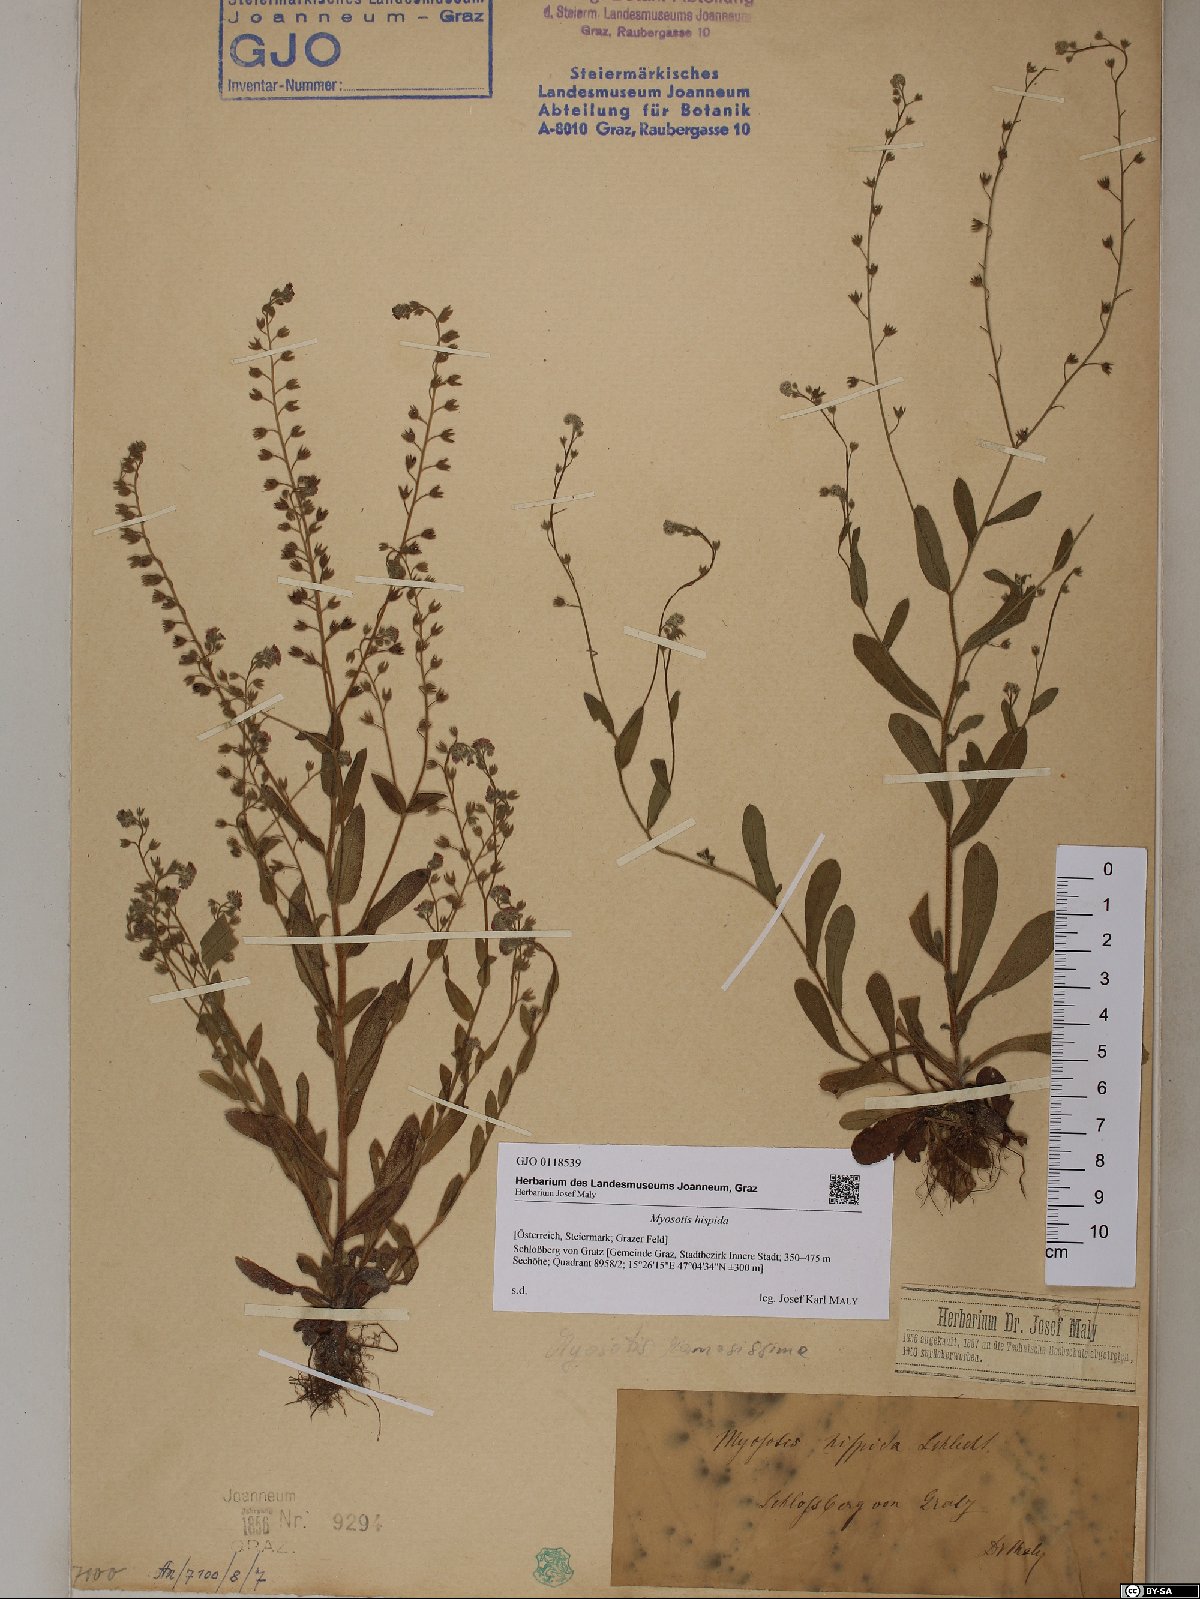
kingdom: Plantae
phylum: Tracheophyta
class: Magnoliopsida
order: Boraginales
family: Boraginaceae
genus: Myosotis
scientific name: Myosotis ramosissima
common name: Early forget-me-not
